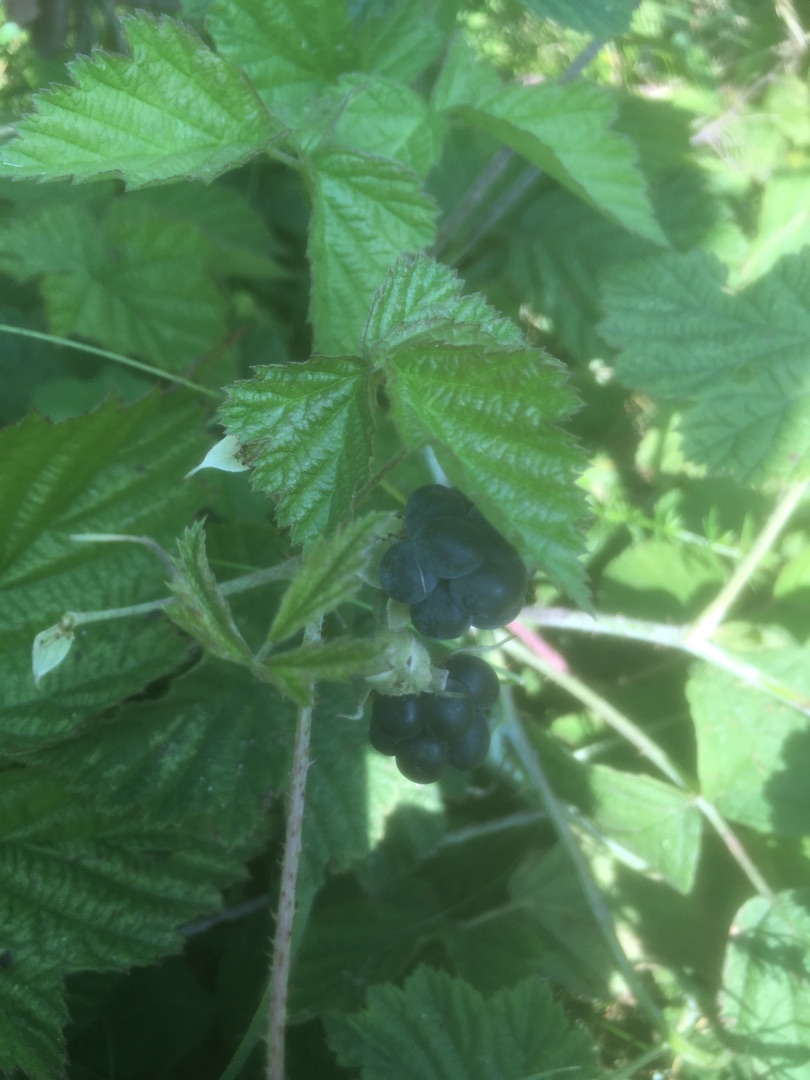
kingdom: Plantae
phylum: Tracheophyta
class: Magnoliopsida
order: Rosales
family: Rosaceae
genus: Rubus
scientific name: Rubus caesius
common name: Korbær
